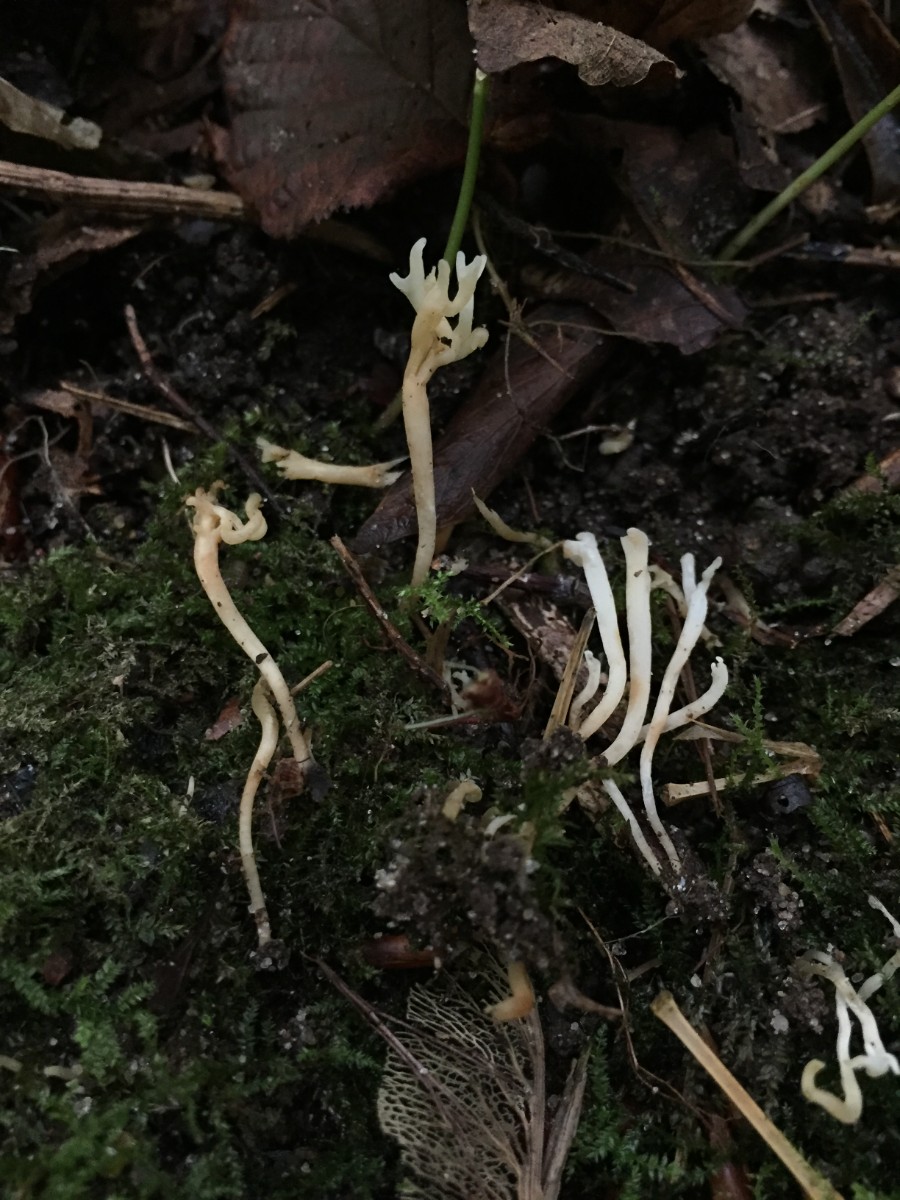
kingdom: Fungi
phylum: Basidiomycota
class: Agaricomycetes
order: Agaricales
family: Clavariaceae
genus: Ramariopsis
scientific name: Ramariopsis hirtipes
